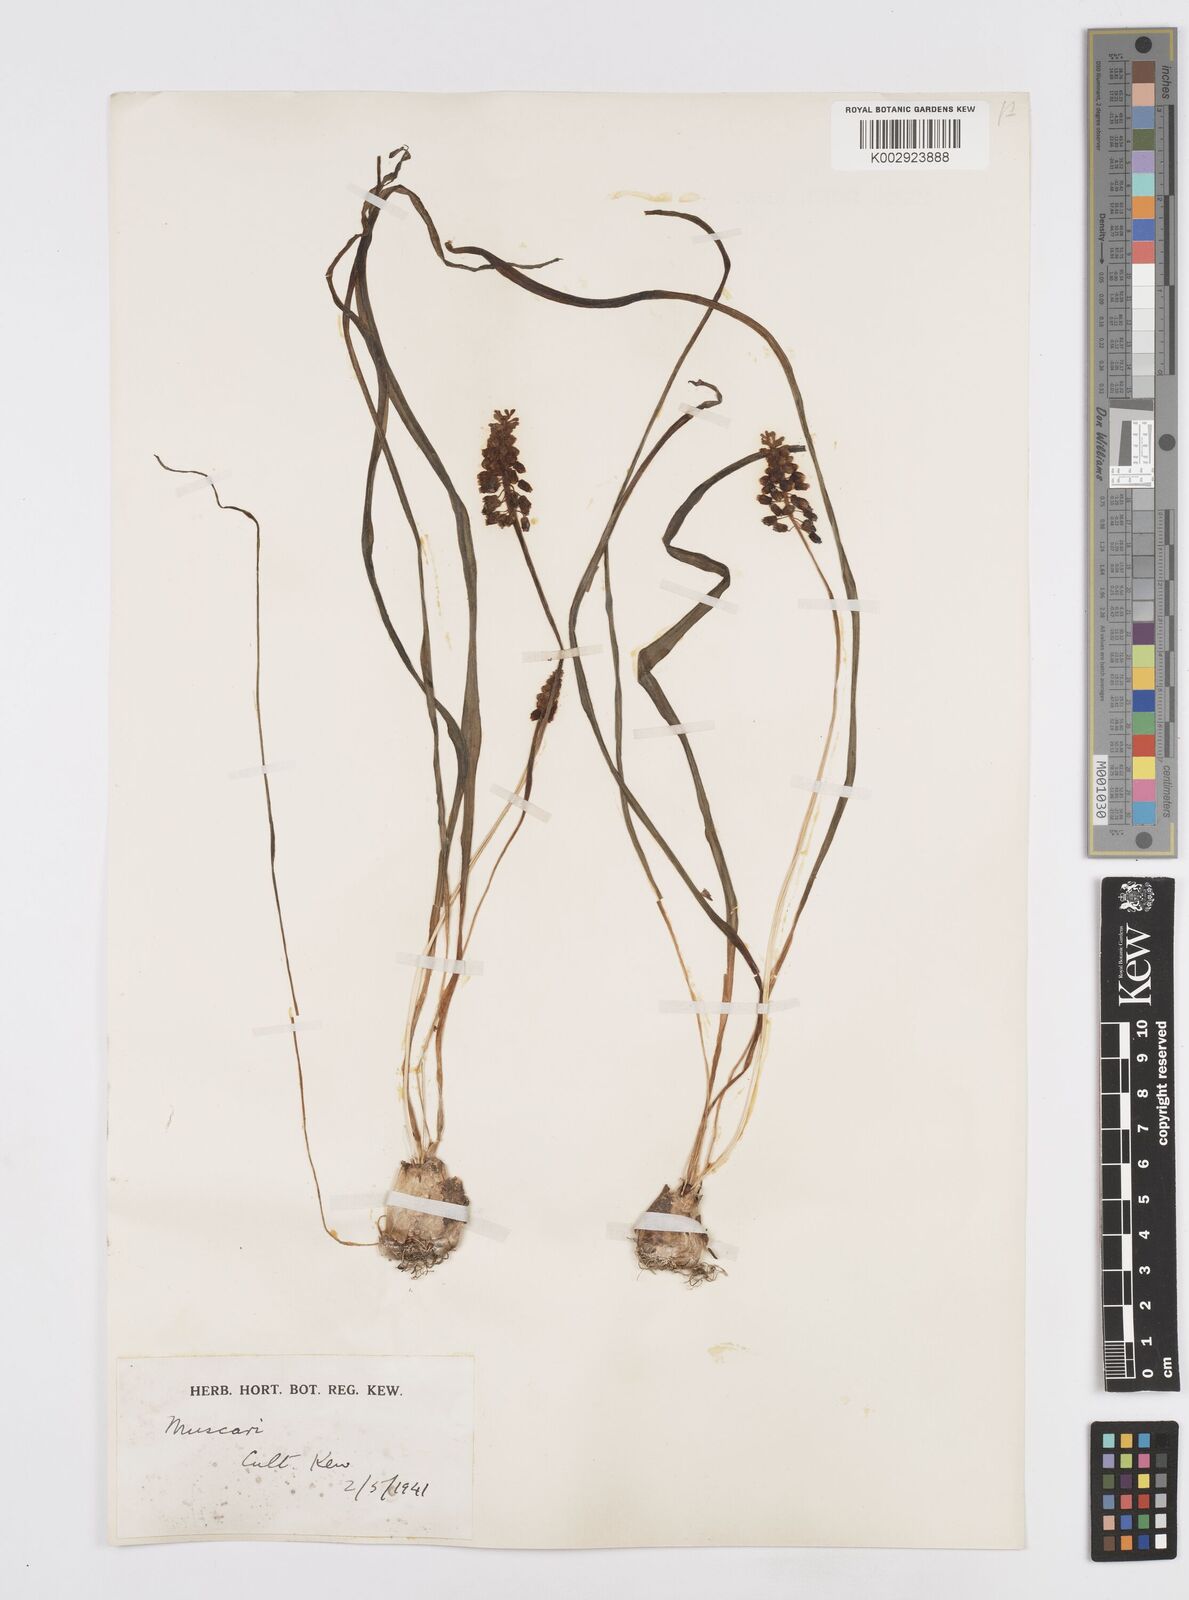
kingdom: Plantae
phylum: Tracheophyta
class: Liliopsida
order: Asparagales
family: Asparagaceae
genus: Muscari
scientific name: Muscari
